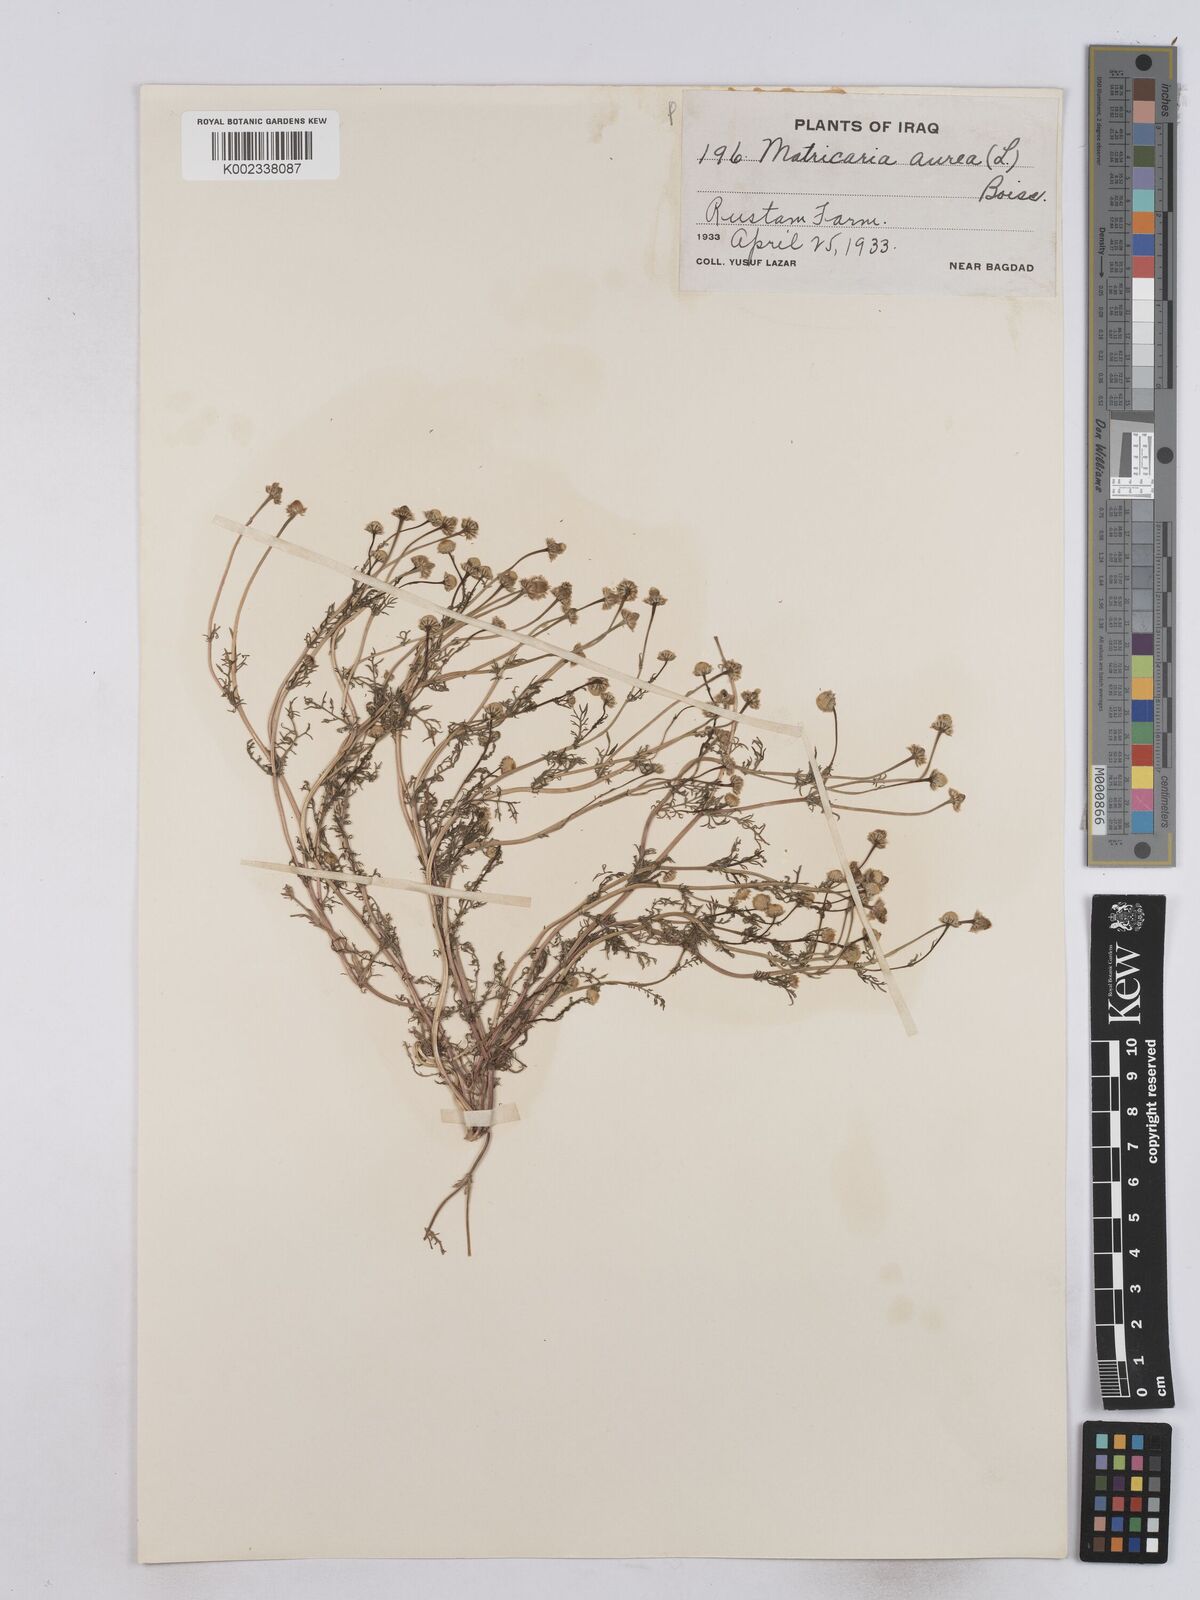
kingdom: Plantae
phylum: Tracheophyta
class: Magnoliopsida
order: Asterales
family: Asteraceae
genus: Matricaria
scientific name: Matricaria aurea
